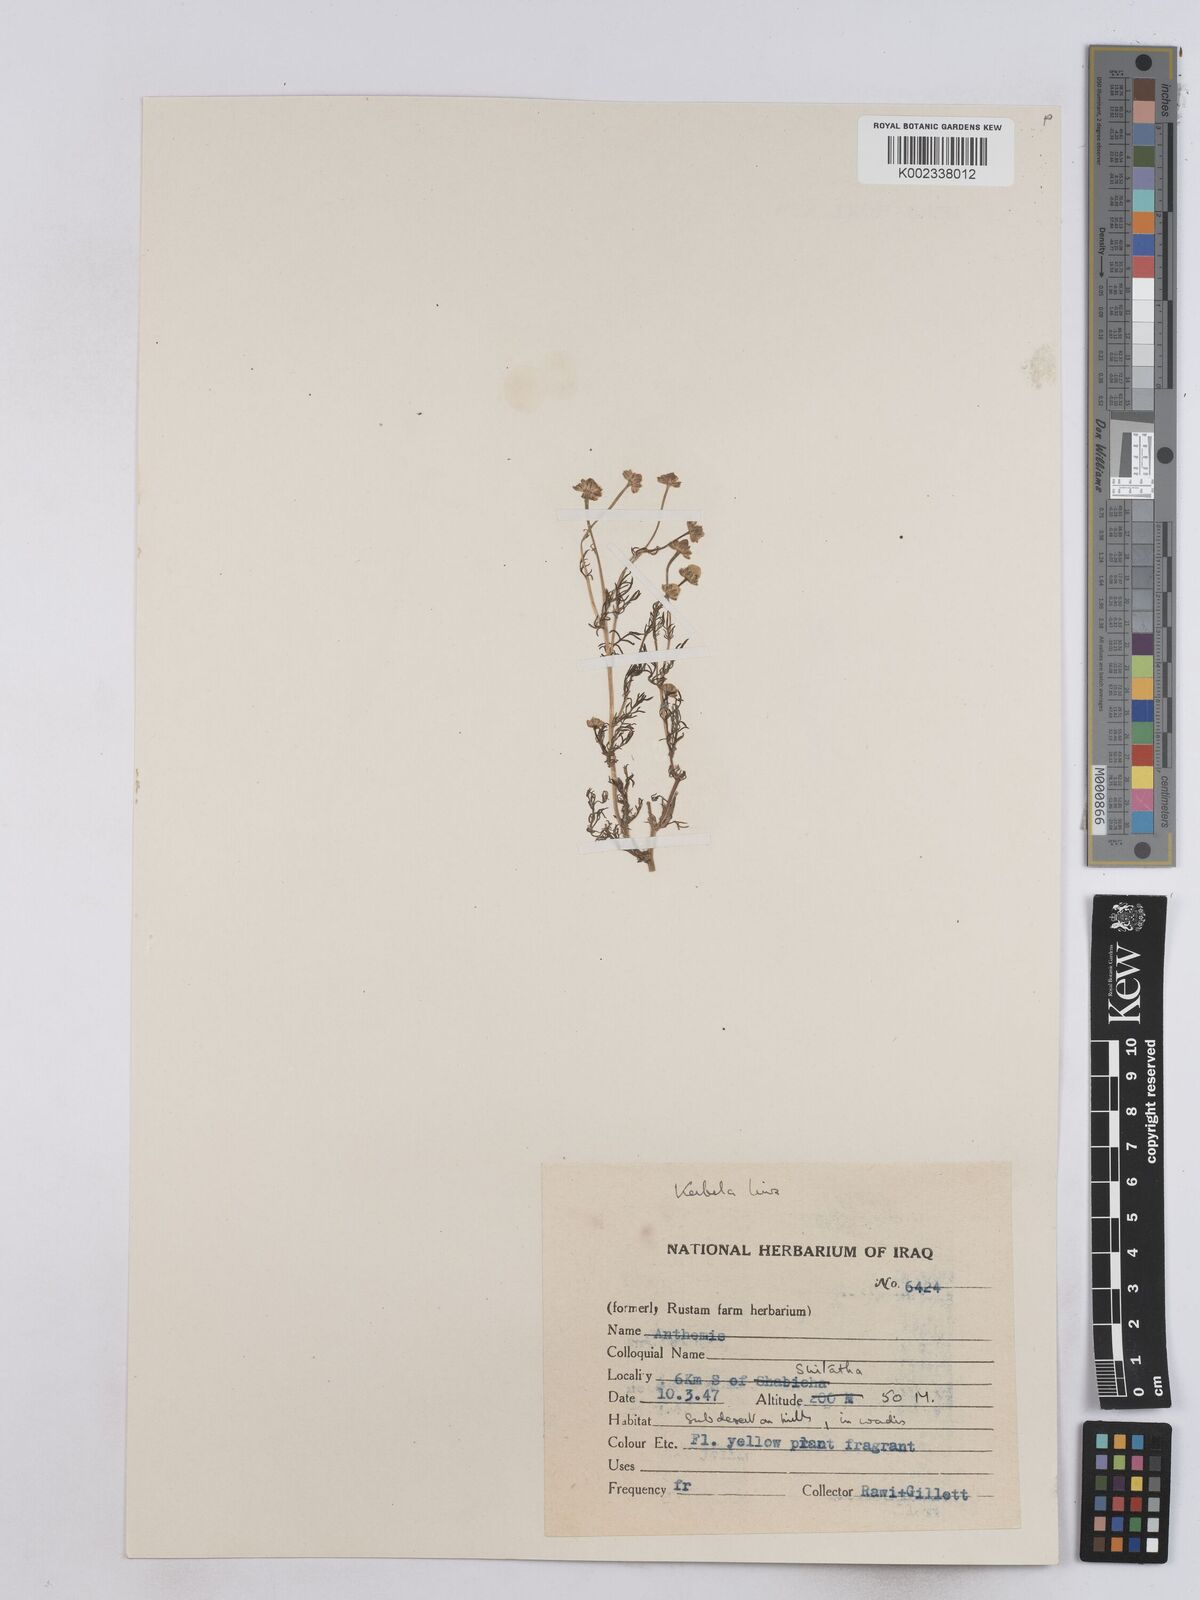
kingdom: Plantae
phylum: Tracheophyta
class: Magnoliopsida
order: Asterales
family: Asteraceae
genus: Matricaria
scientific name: Matricaria aurea
